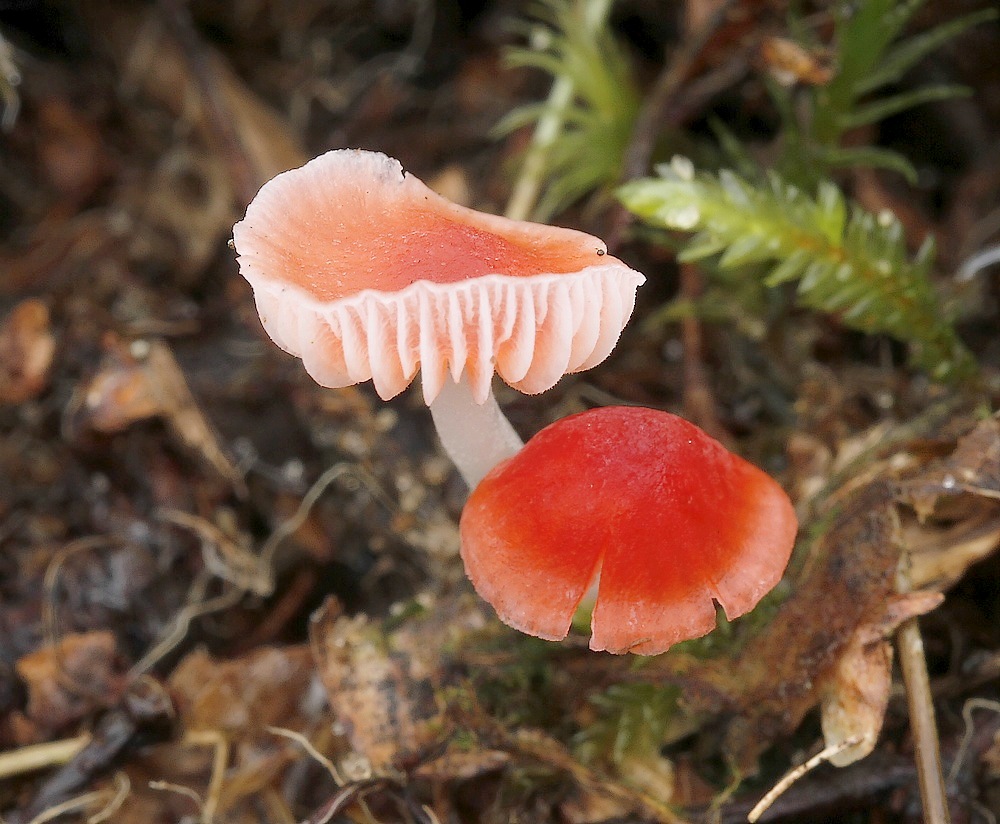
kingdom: Fungi
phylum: Basidiomycota
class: Agaricomycetes
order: Agaricales
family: Mycenaceae
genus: Atheniella
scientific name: Atheniella adonis
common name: rønnerød huesvamp
